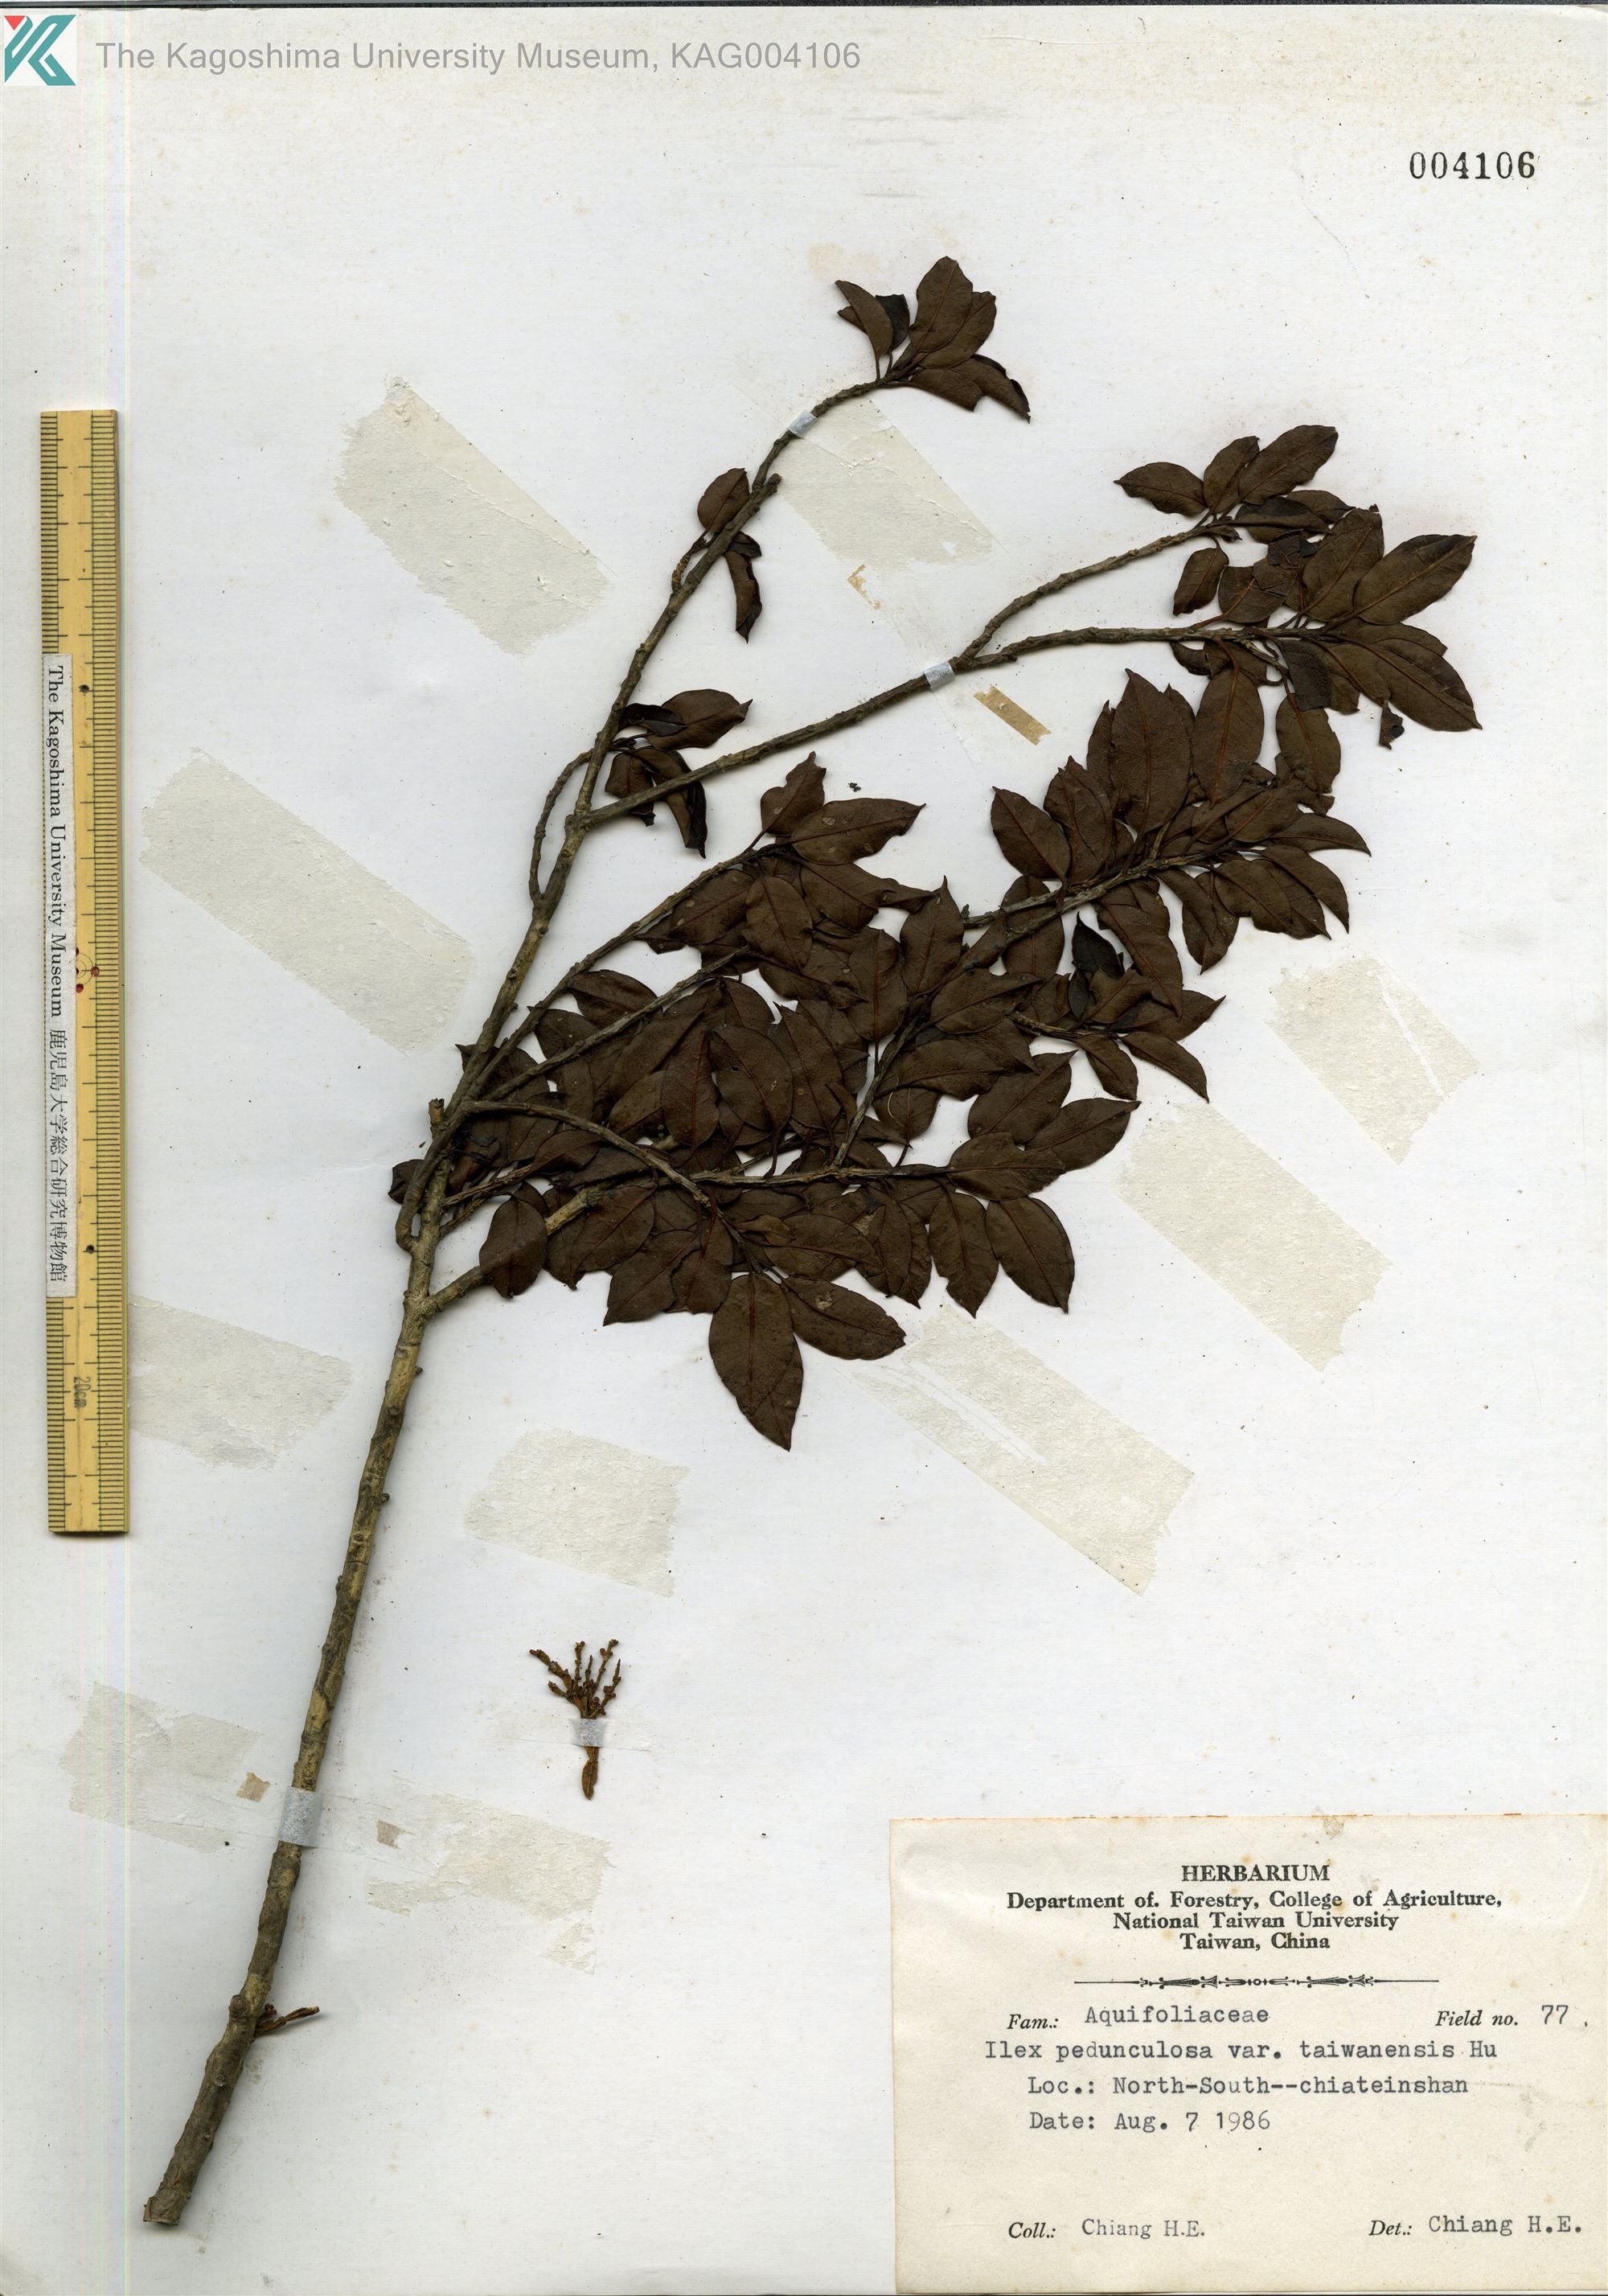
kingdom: Plantae
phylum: Tracheophyta
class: Magnoliopsida
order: Aquifoliales
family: Aquifoliaceae
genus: Ilex
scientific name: Ilex sugerokii
